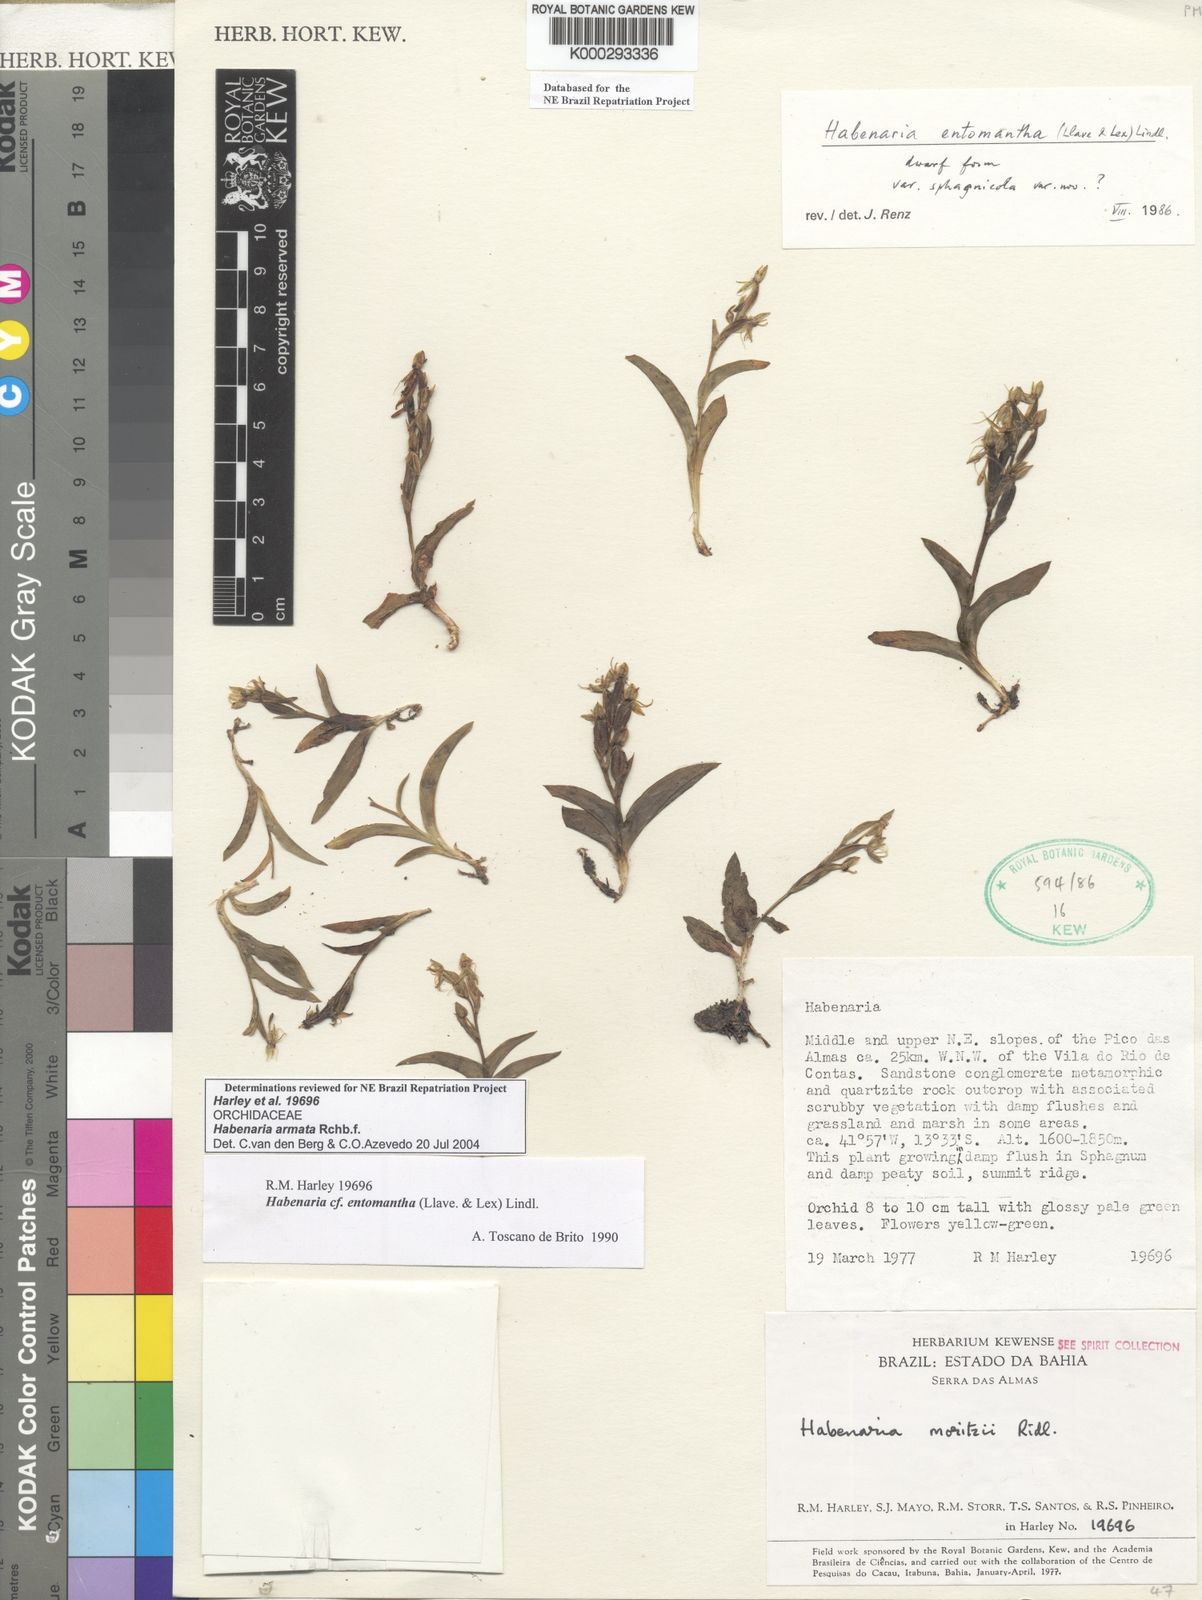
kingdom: Plantae
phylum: Tracheophyta
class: Liliopsida
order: Asparagales
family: Orchidaceae
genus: Habenaria
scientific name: Habenaria armata
